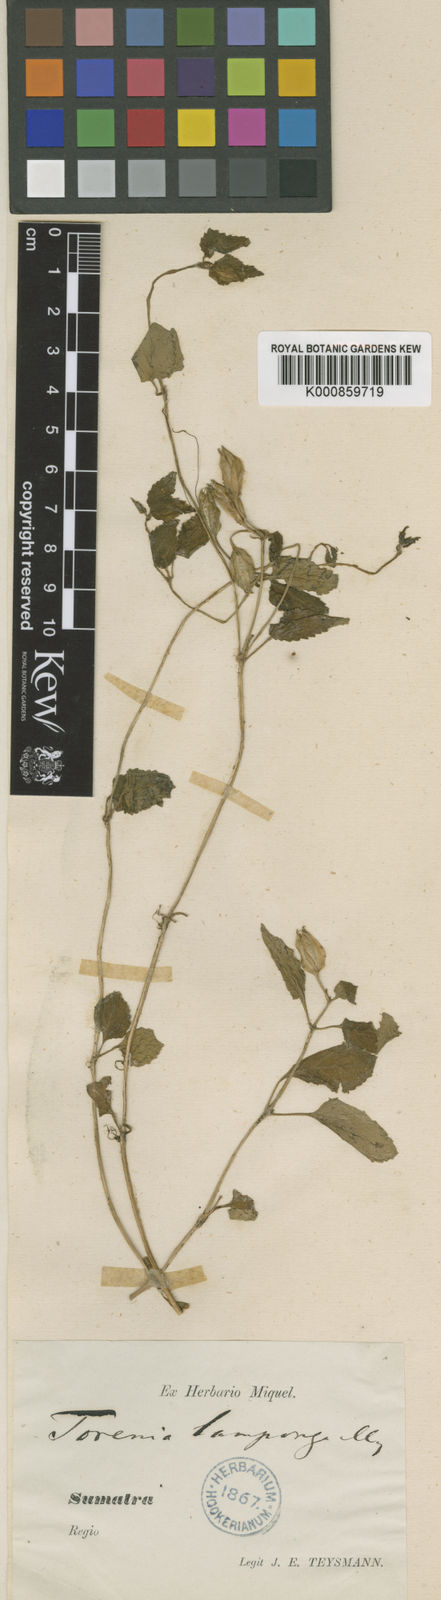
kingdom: Plantae
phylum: Tracheophyta
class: Magnoliopsida
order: Lamiales
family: Linderniaceae
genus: Torenia
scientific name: Torenia lamponga
